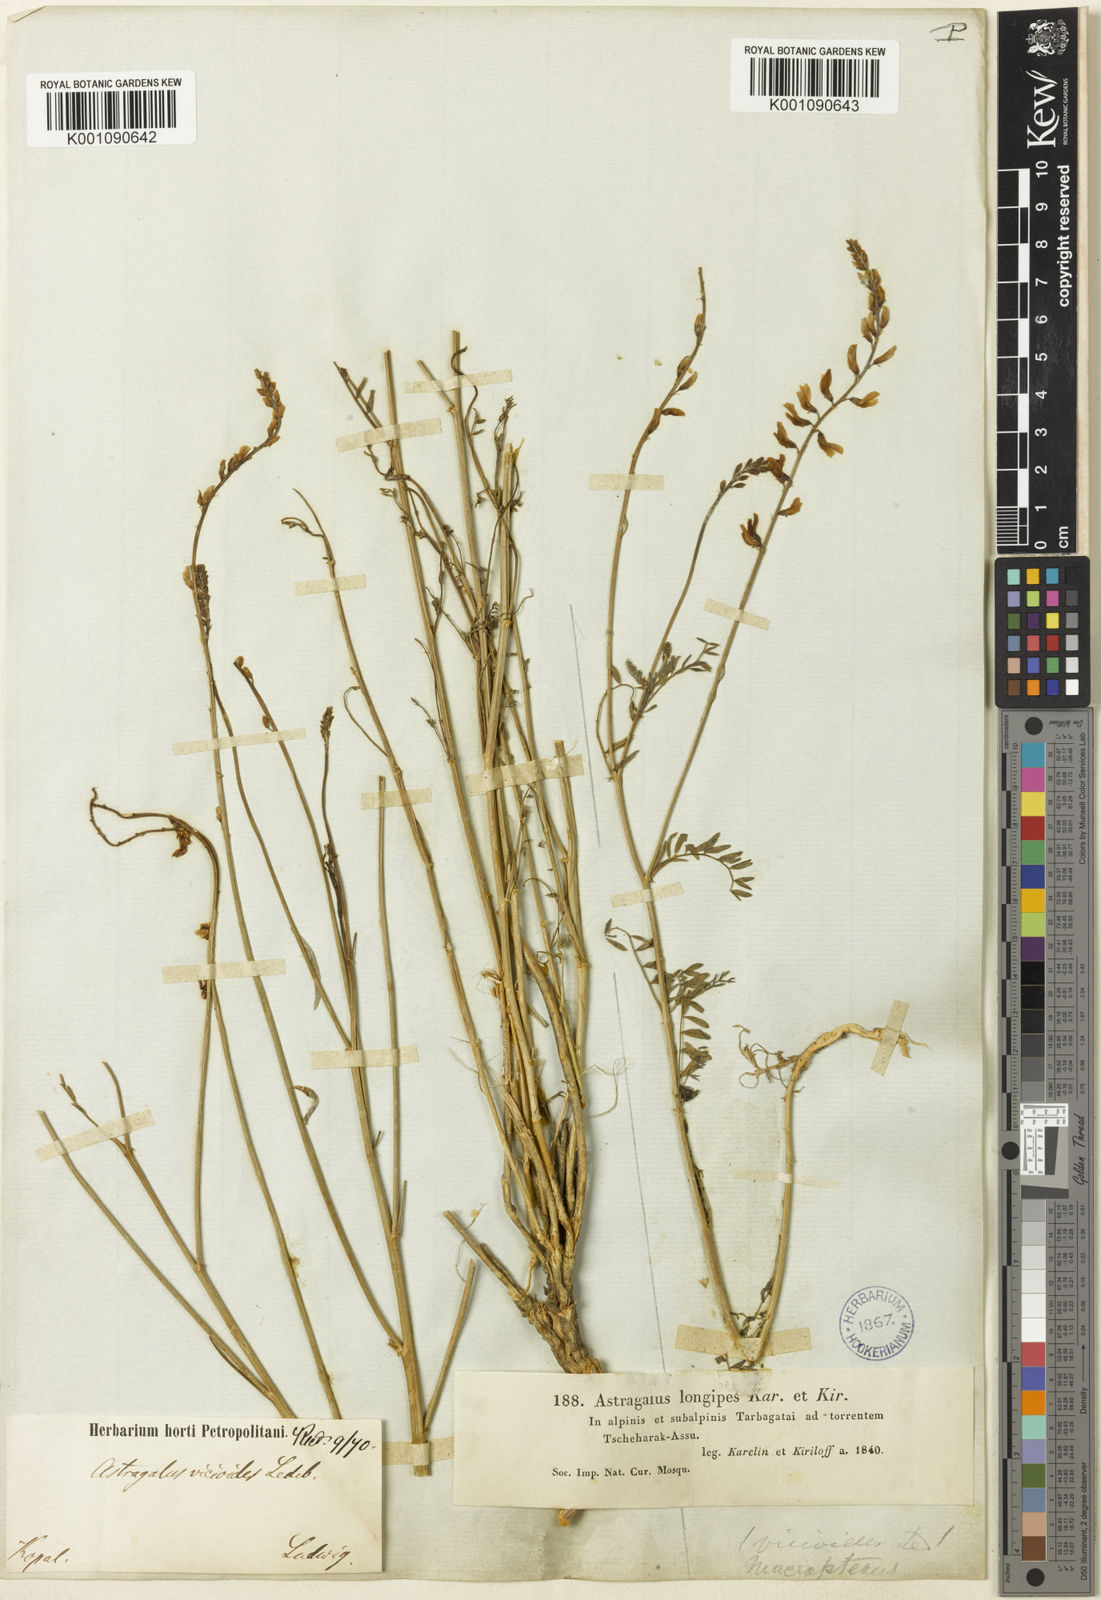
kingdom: Plantae
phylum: Tracheophyta
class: Magnoliopsida
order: Fabales
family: Fabaceae
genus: Astragalus
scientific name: Astragalus
